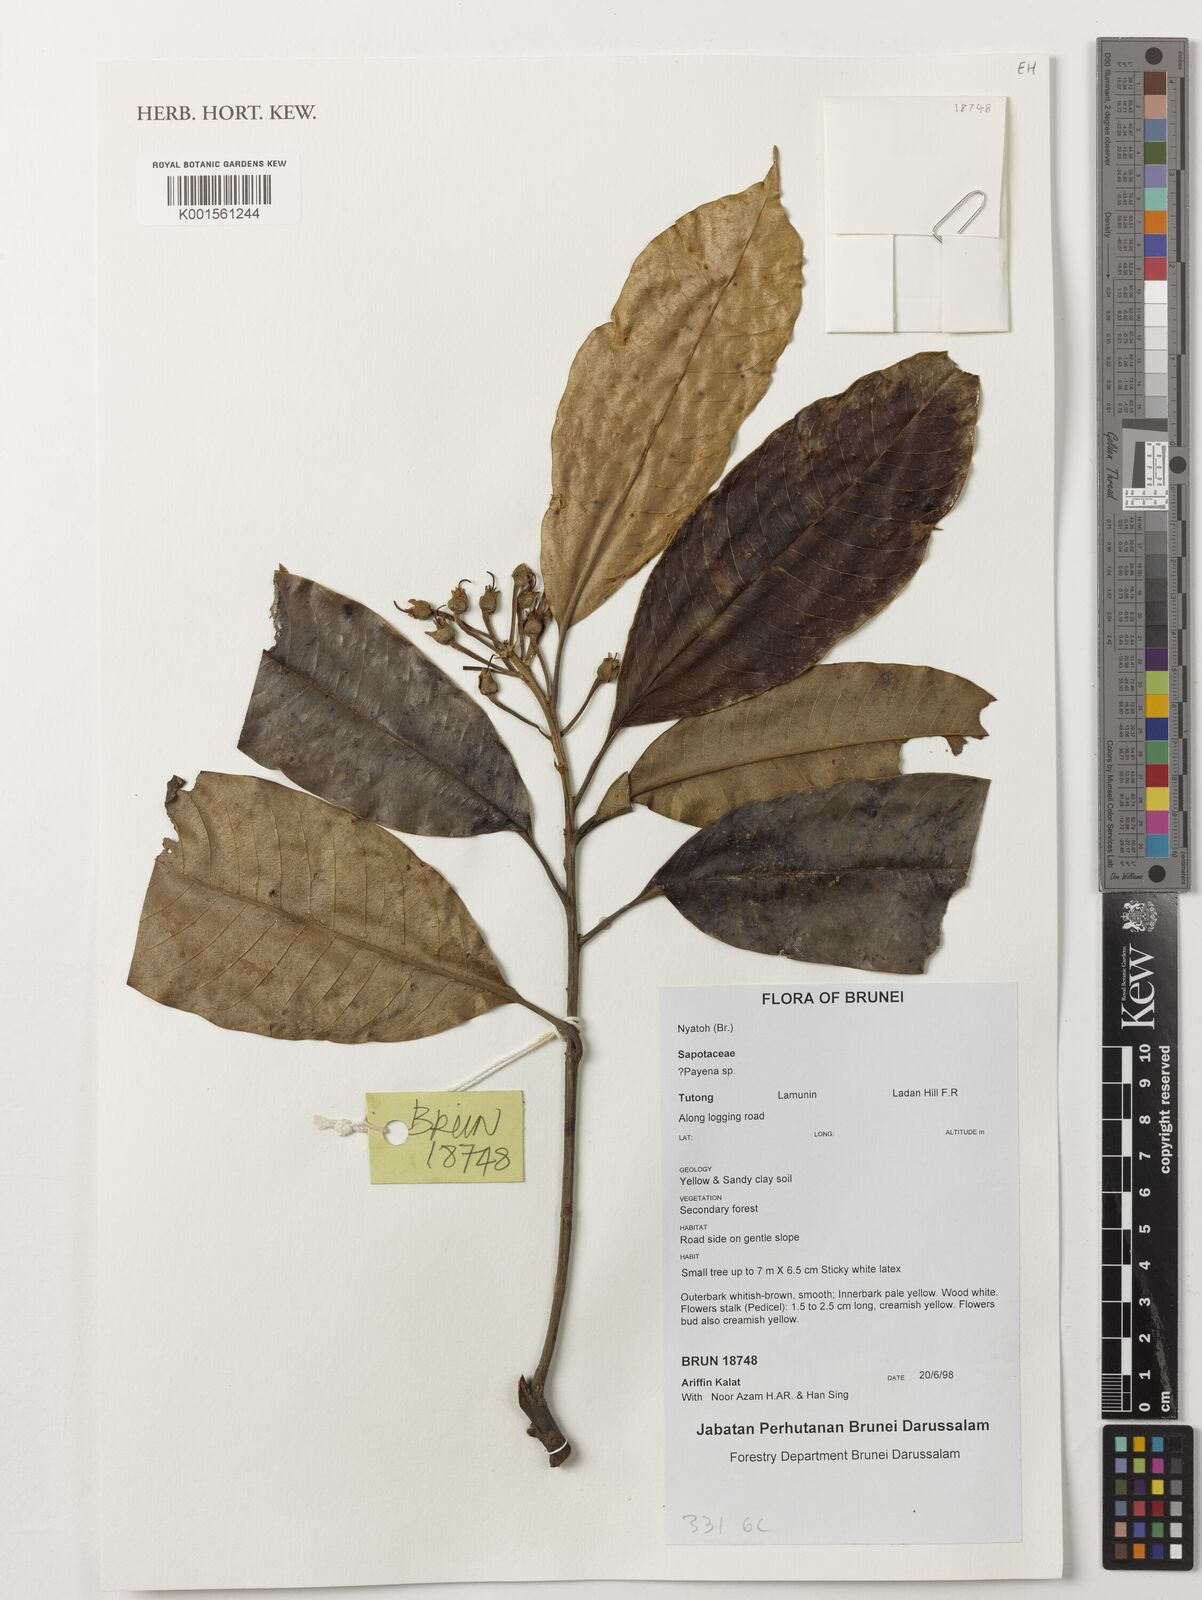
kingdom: Plantae
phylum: Tracheophyta
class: Magnoliopsida
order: Ericales
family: Sapotaceae
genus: Payena
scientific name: Payena
